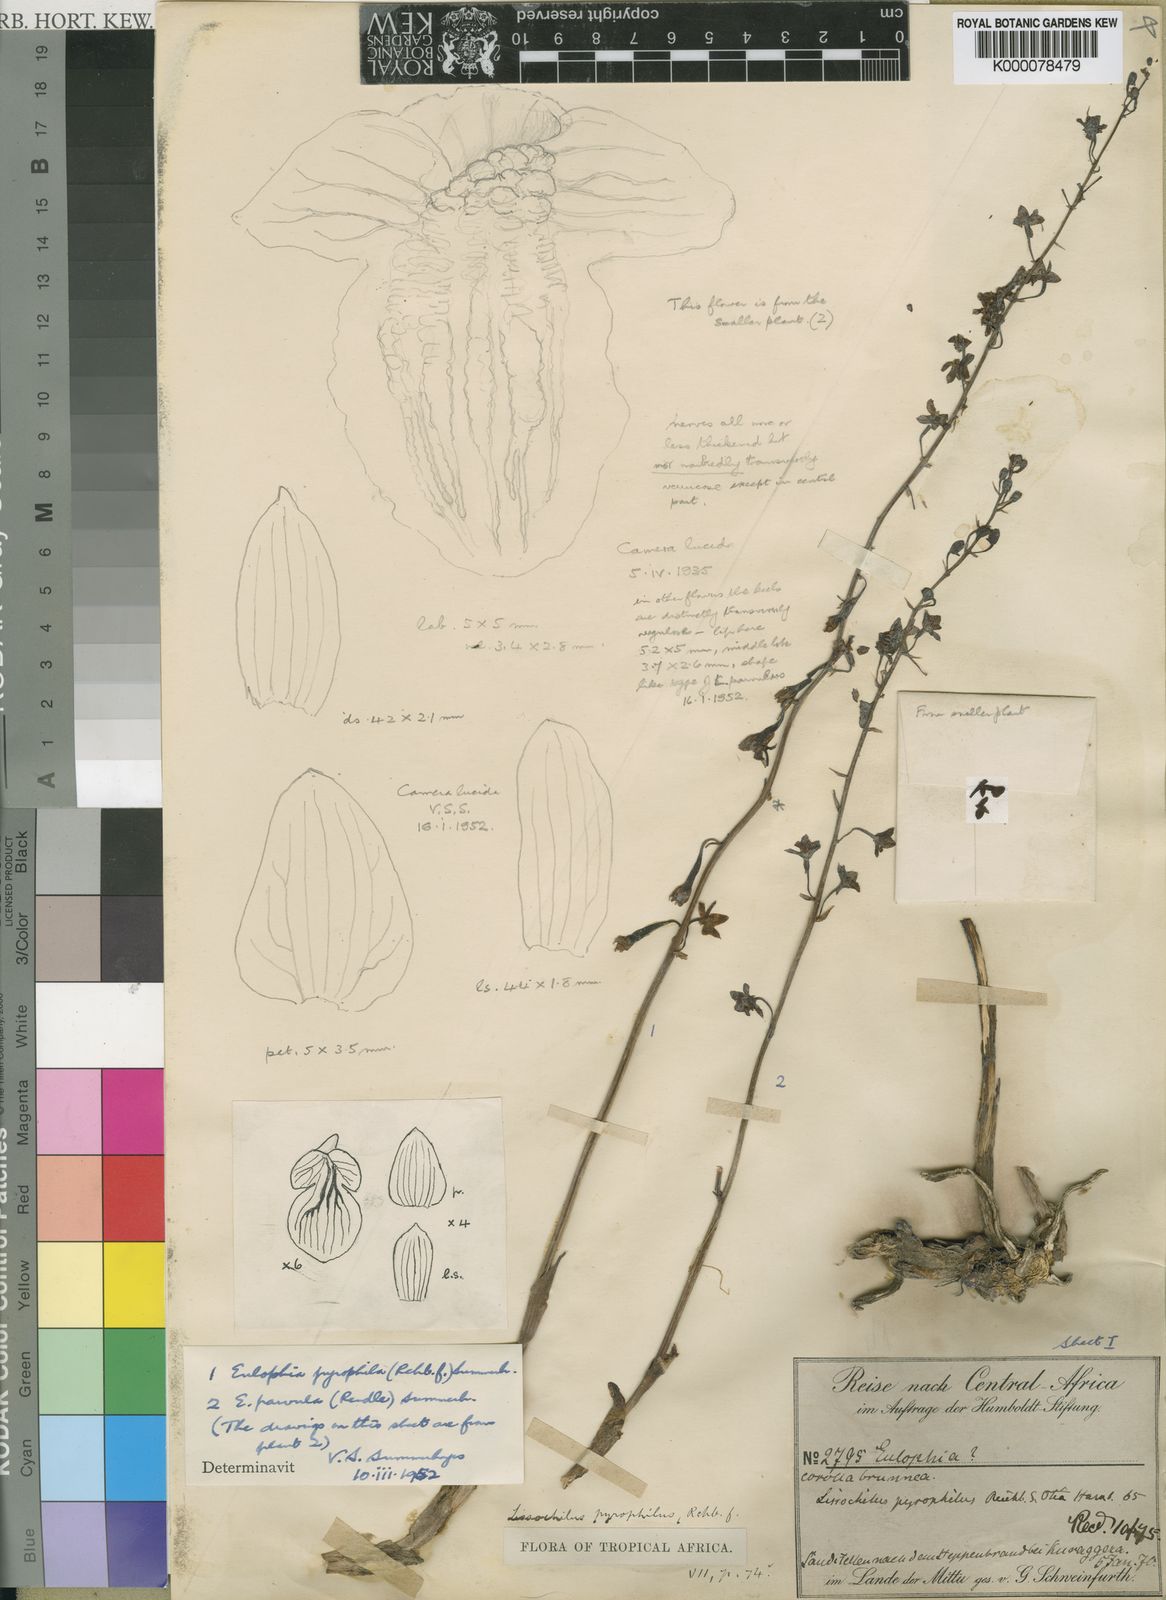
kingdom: Plantae
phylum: Tracheophyta
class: Liliopsida
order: Asparagales
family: Orchidaceae
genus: Eulophia
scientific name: Eulophia pyrophila
